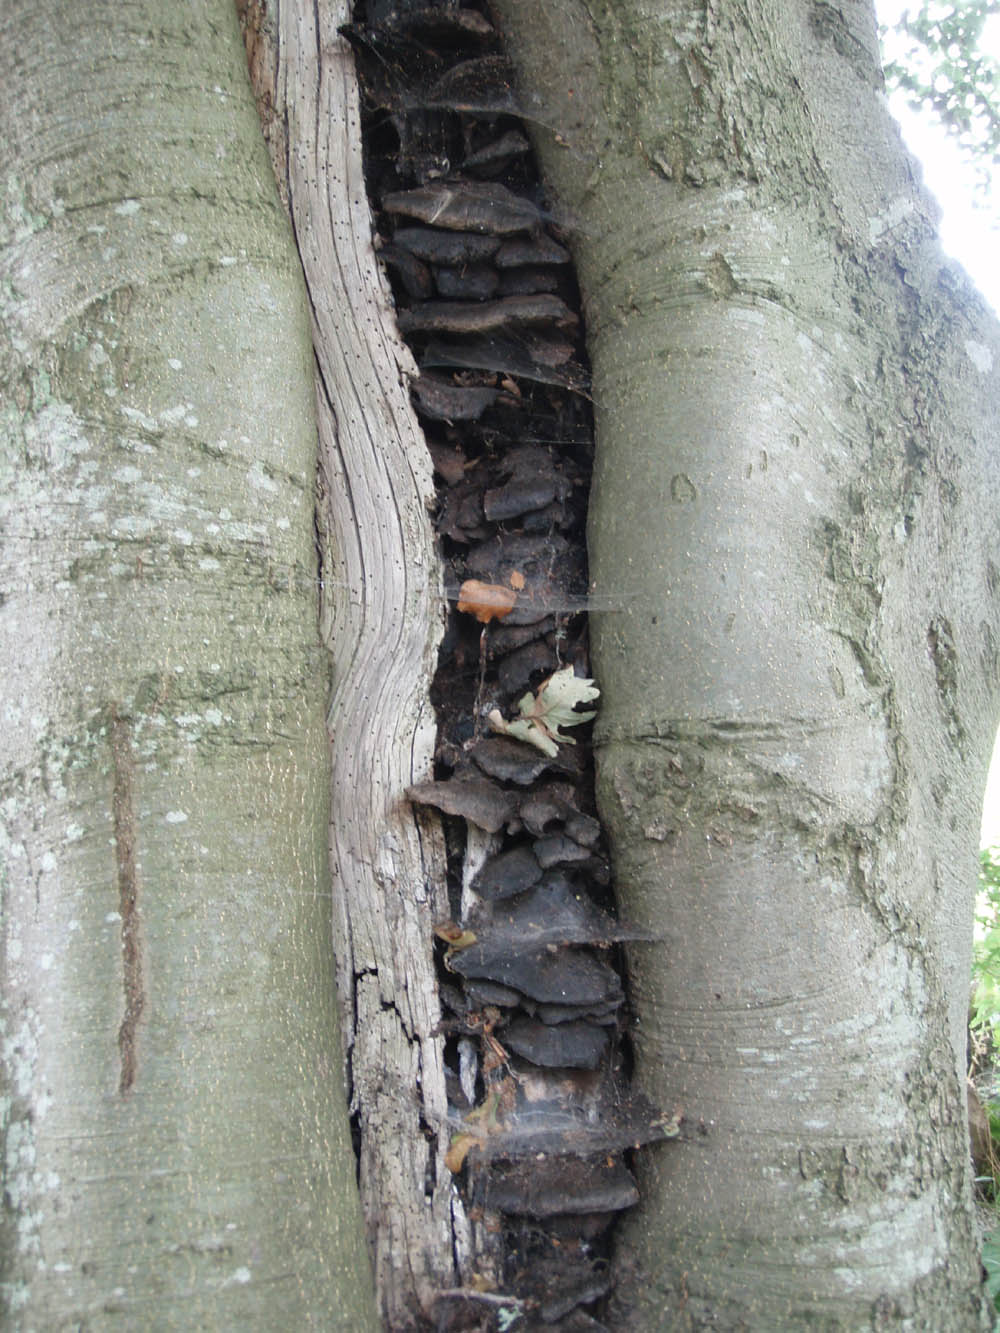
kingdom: Fungi
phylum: Basidiomycota
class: Agaricomycetes
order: Hymenochaetales
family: Hymenochaetaceae
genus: Inonotus
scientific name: Inonotus cuticularis
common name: kroghåret spejlporesvamp
